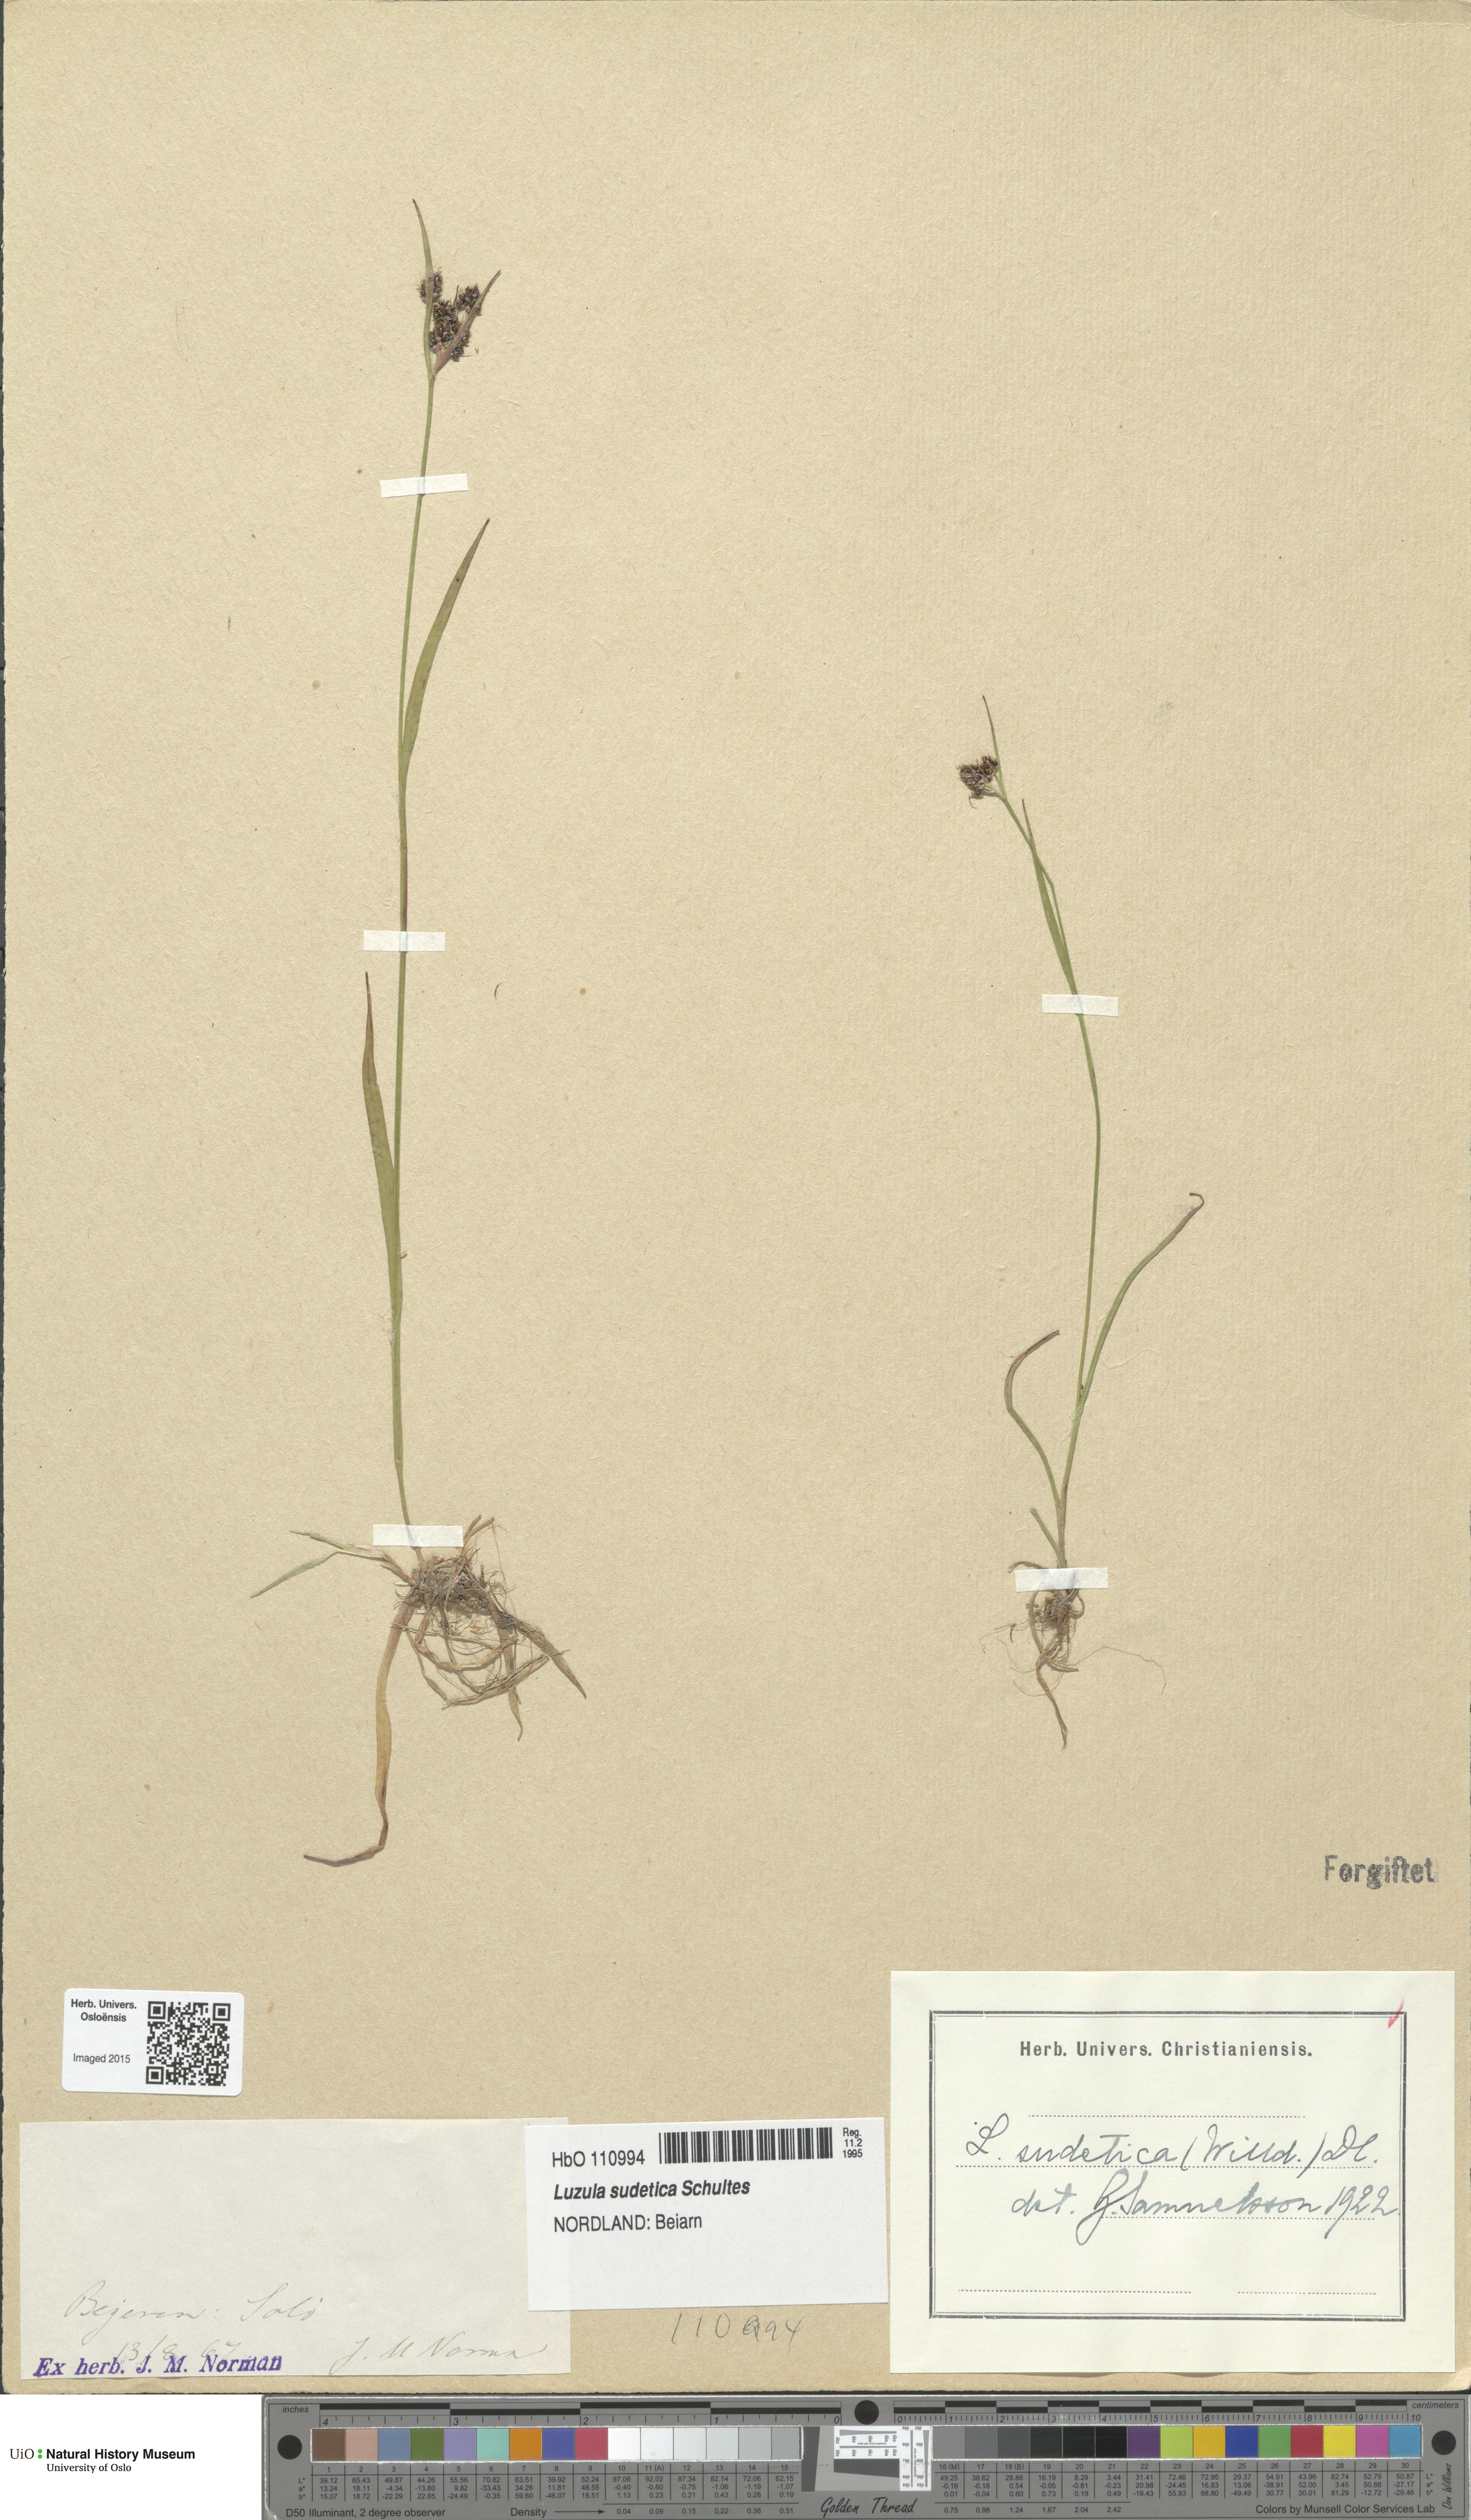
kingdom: Plantae
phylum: Tracheophyta
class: Liliopsida
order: Poales
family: Juncaceae
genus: Luzula
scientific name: Luzula sudetica
